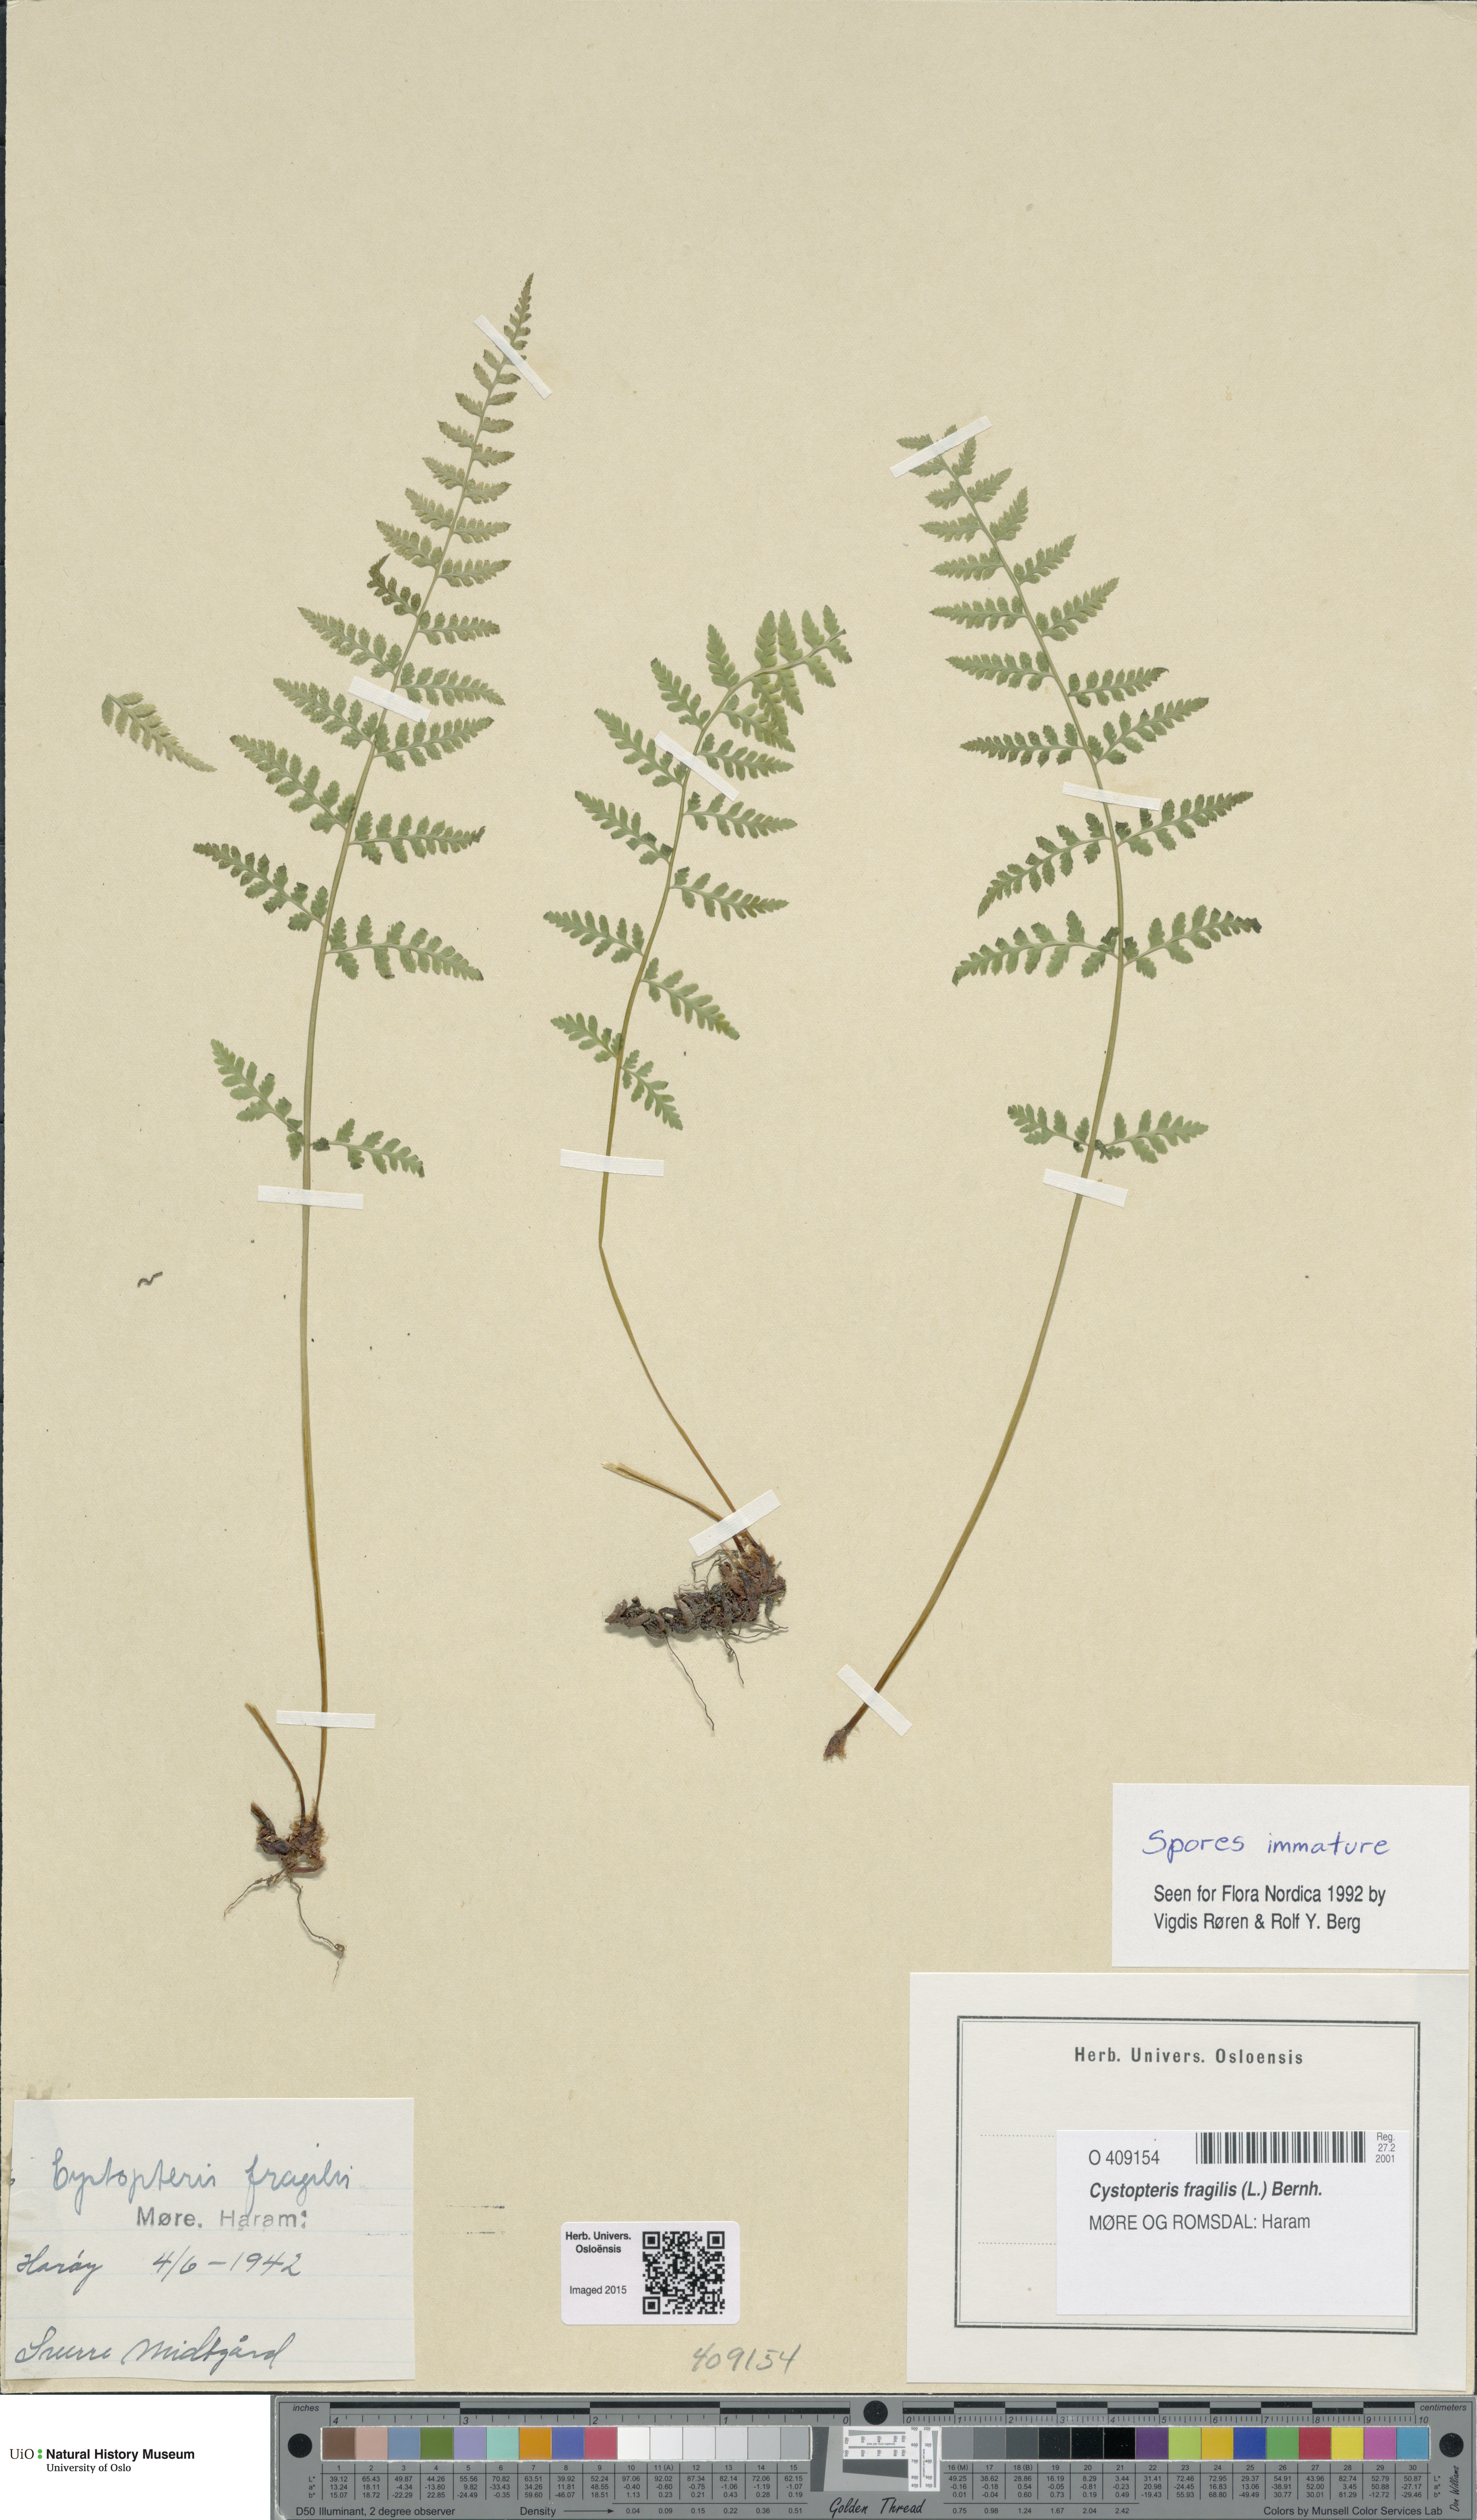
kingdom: Plantae
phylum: Tracheophyta
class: Polypodiopsida
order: Polypodiales
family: Cystopteridaceae
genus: Cystopteris
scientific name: Cystopteris fragilis
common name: Brittle bladder fern
